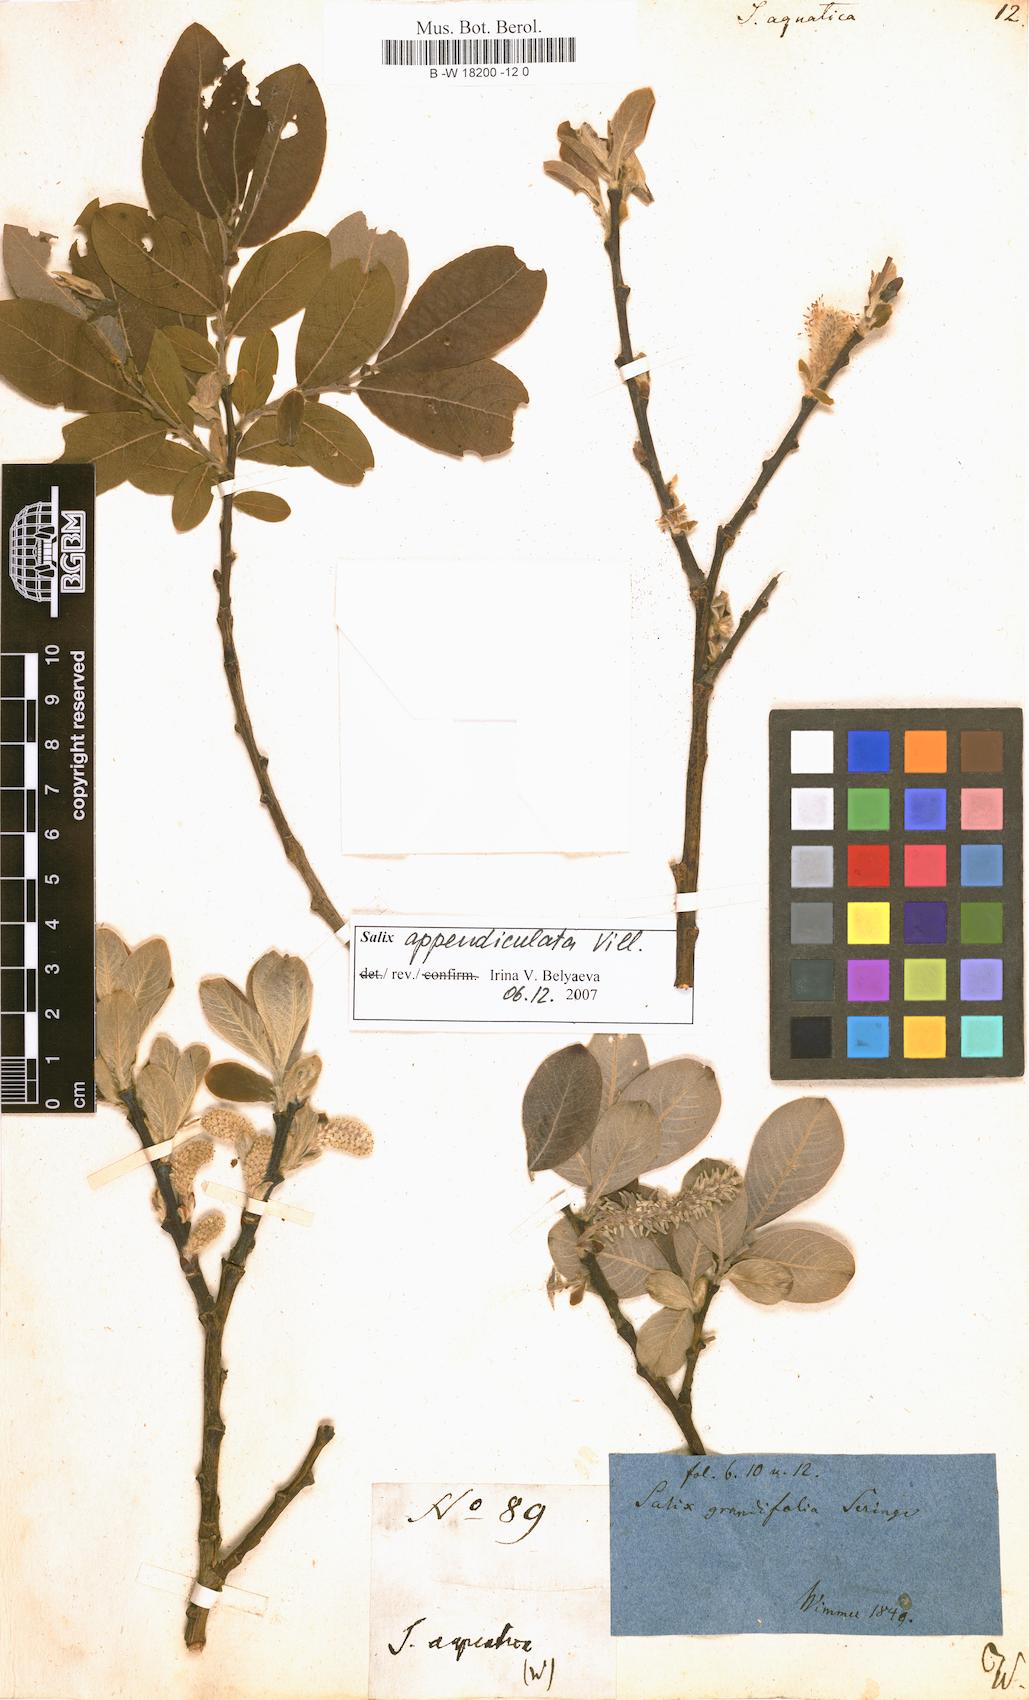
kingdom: Plantae
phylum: Tracheophyta
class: Magnoliopsida
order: Malpighiales
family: Salicaceae
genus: Salix
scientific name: Salix
